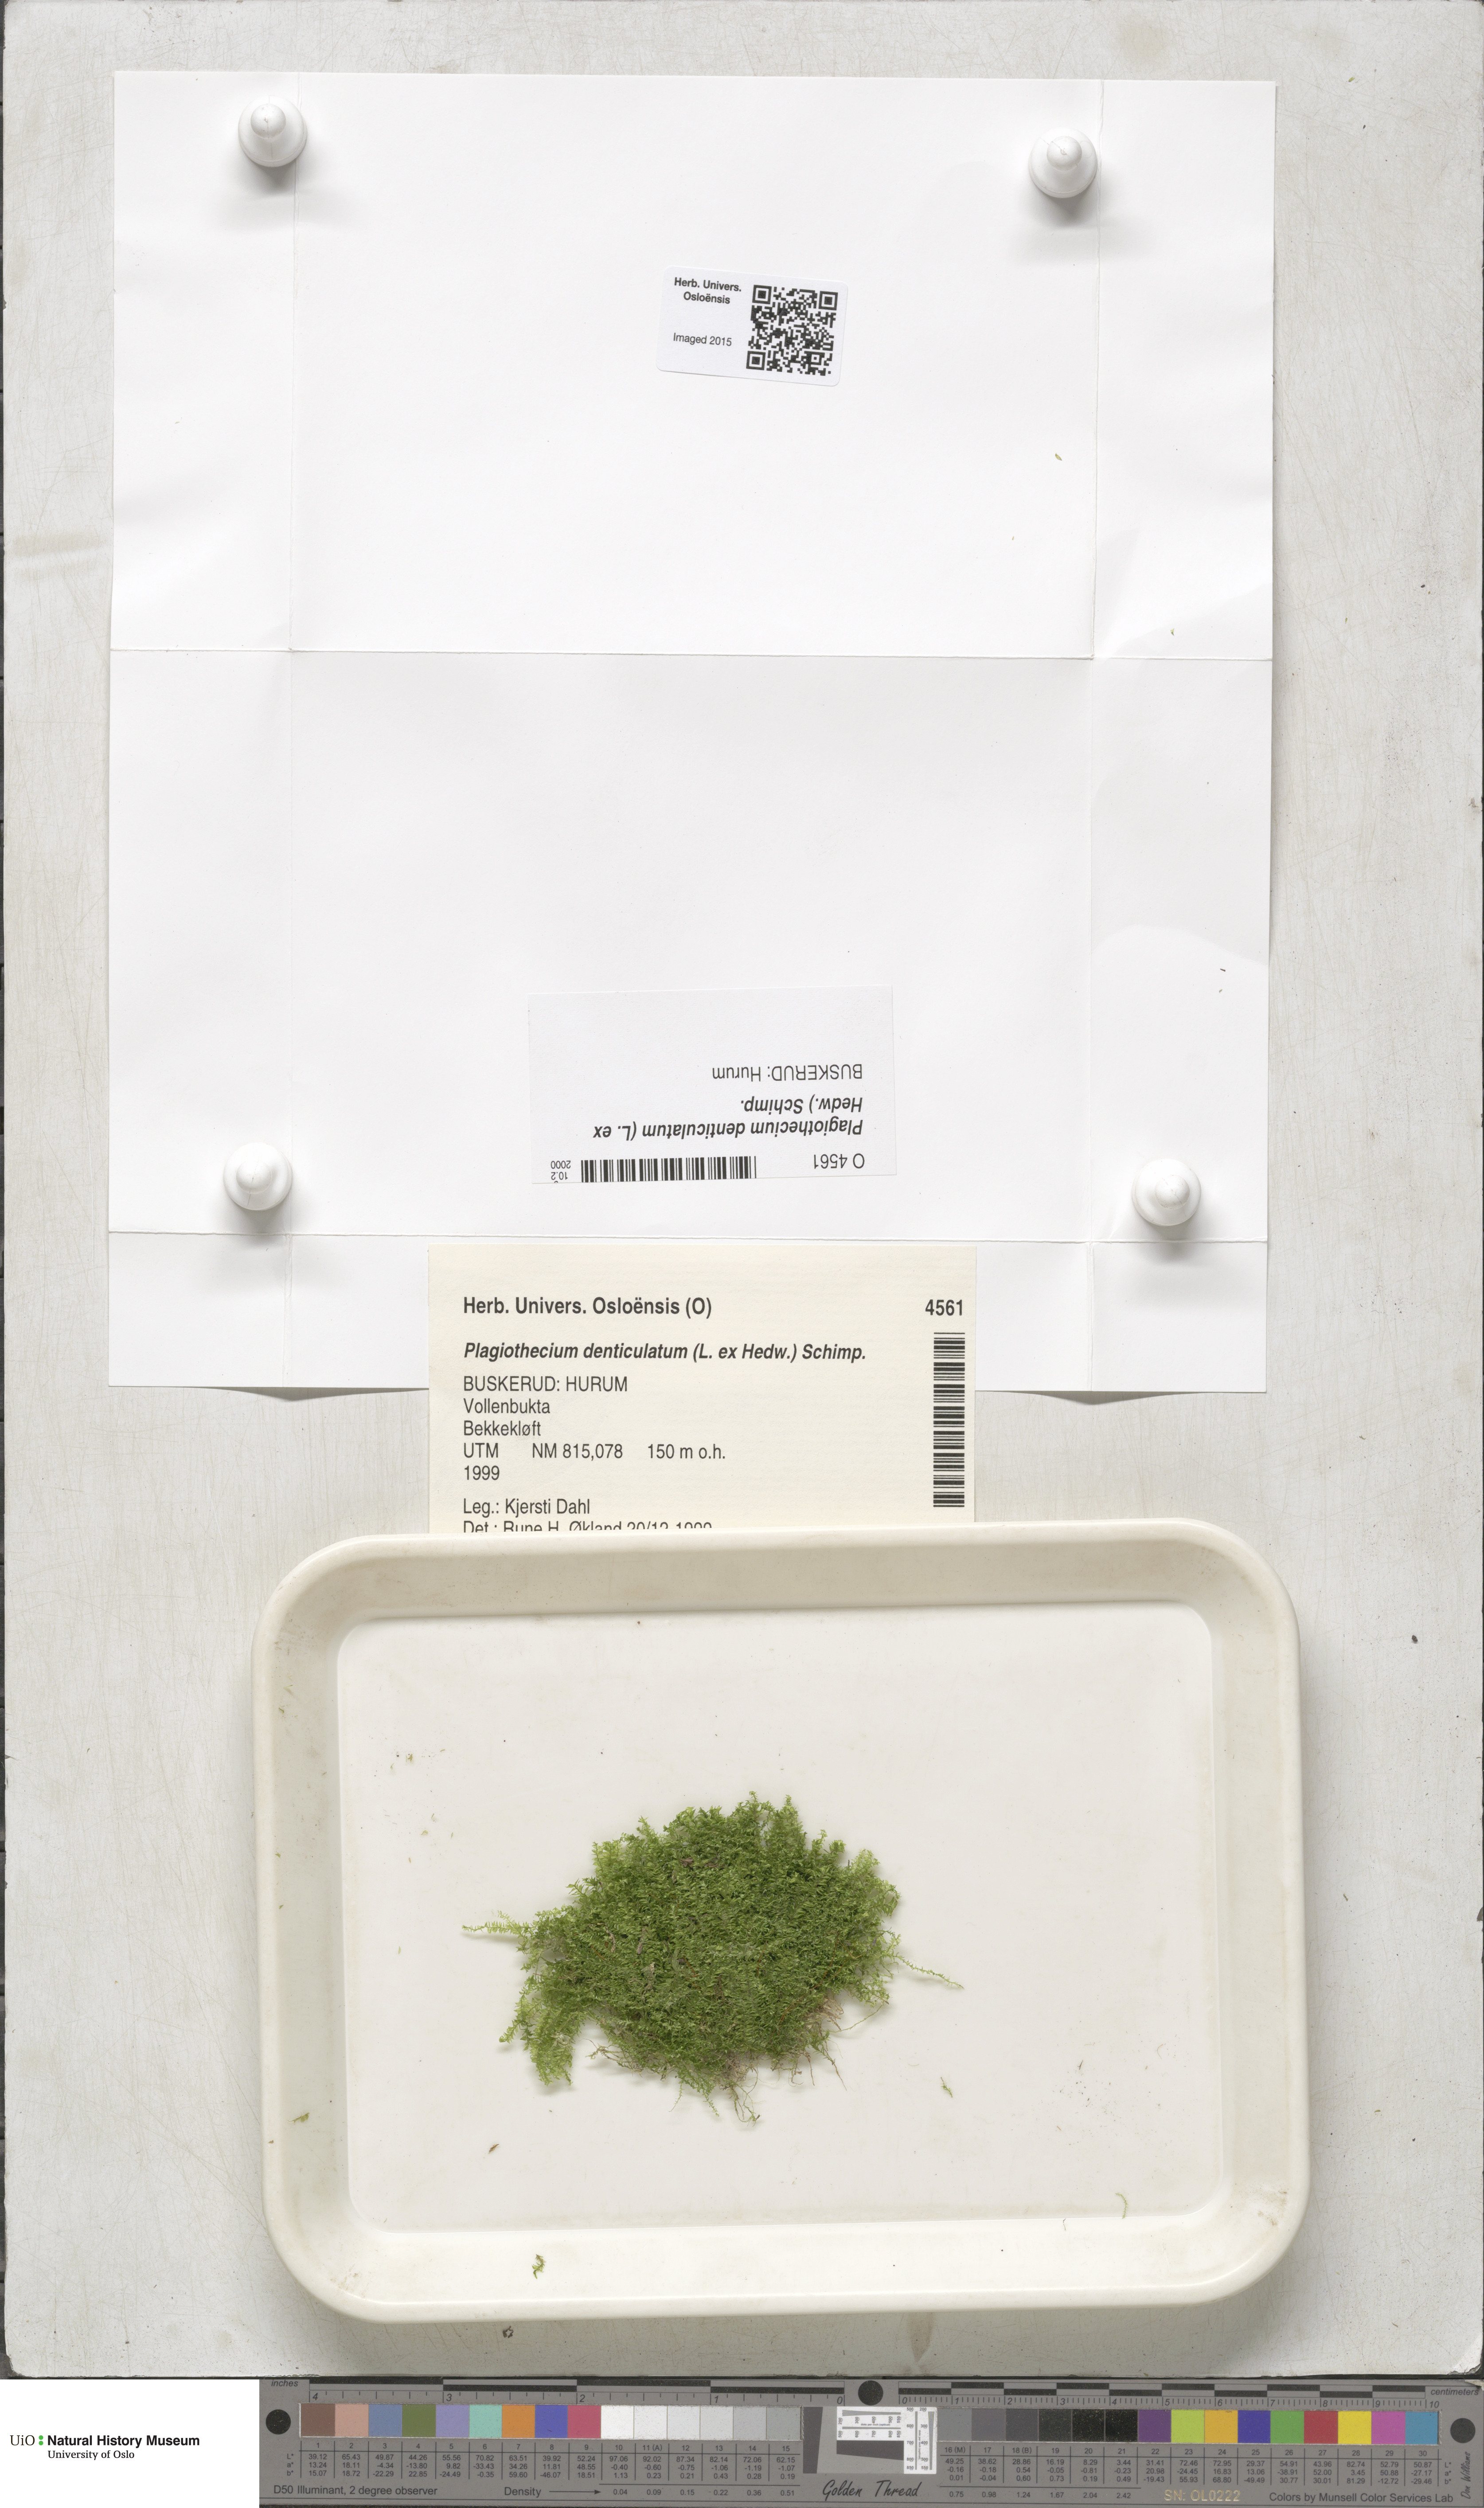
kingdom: Plantae
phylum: Bryophyta
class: Bryopsida
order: Hypnales
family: Plagiotheciaceae
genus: Plagiothecium
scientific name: Plagiothecium denticulatum
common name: Dented silk moss
